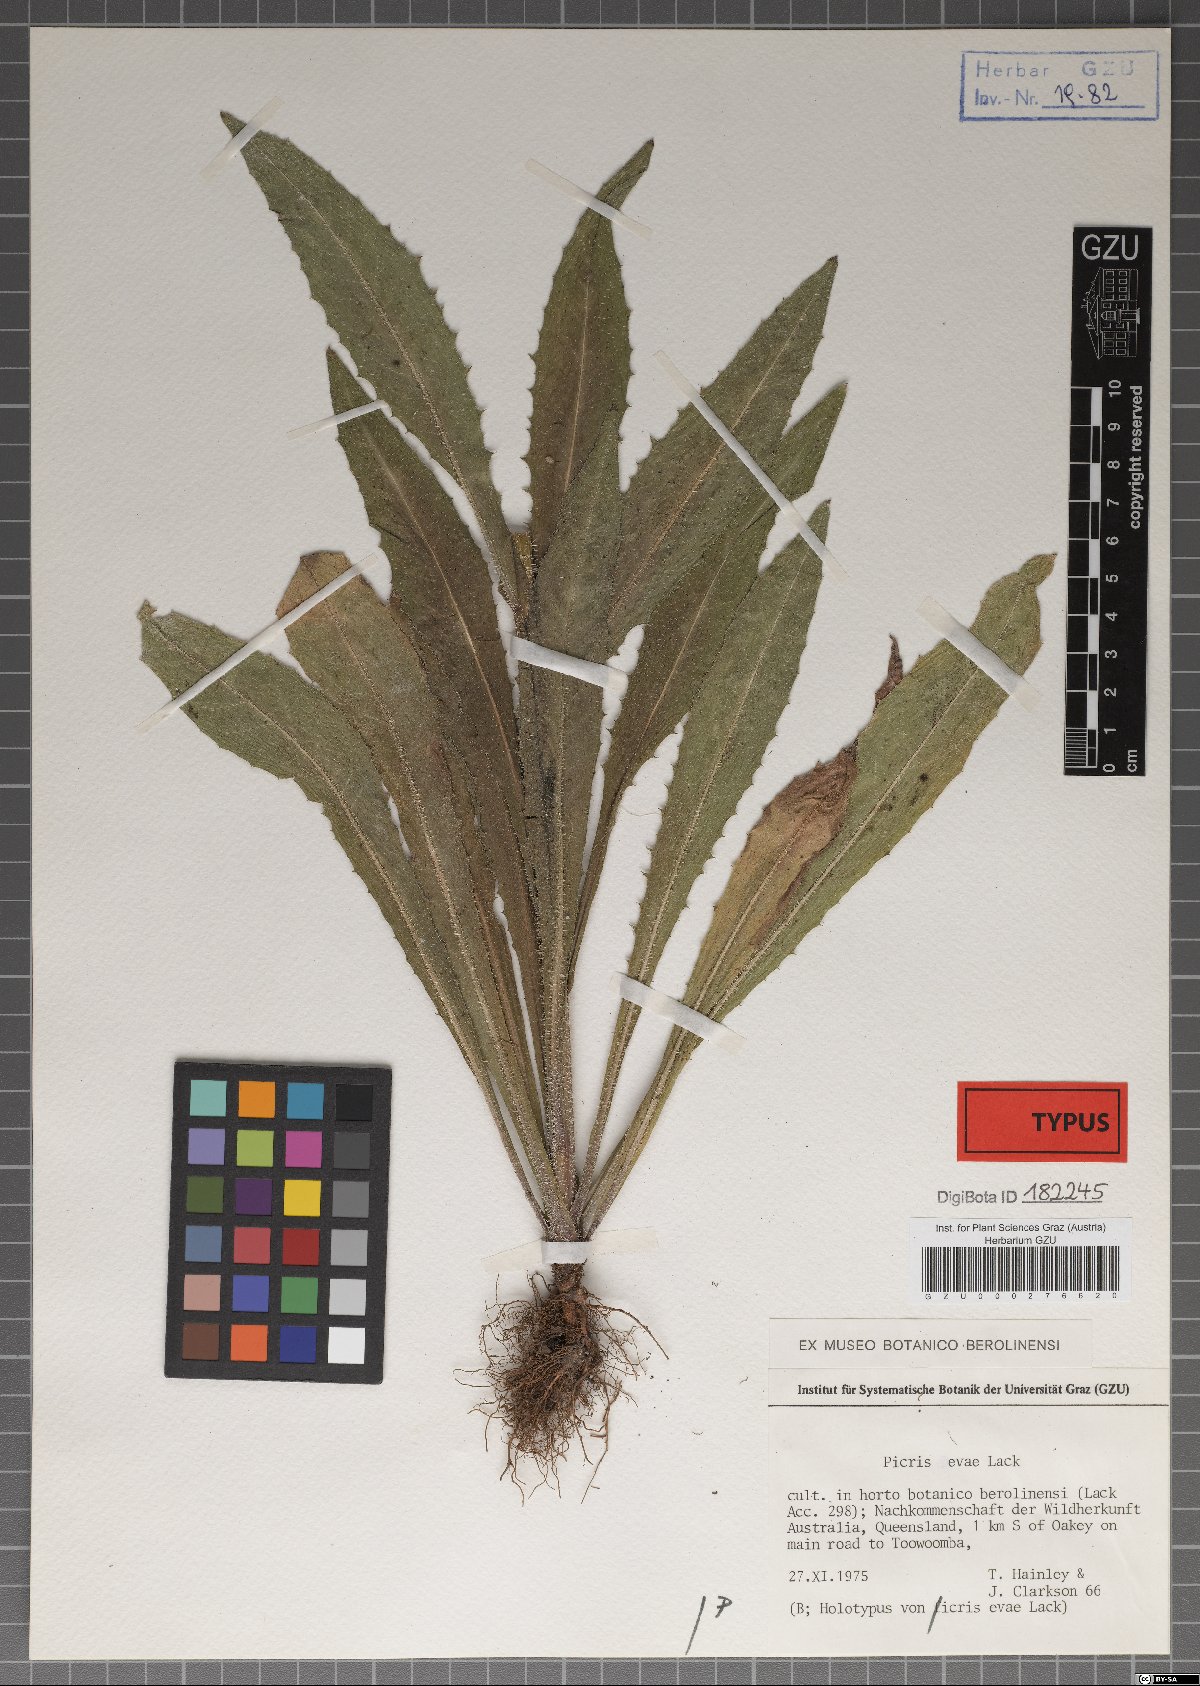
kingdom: Plantae
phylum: Tracheophyta
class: Magnoliopsida
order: Asterales
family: Asteraceae
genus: Picris
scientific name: Picris evae
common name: Hawkweed
